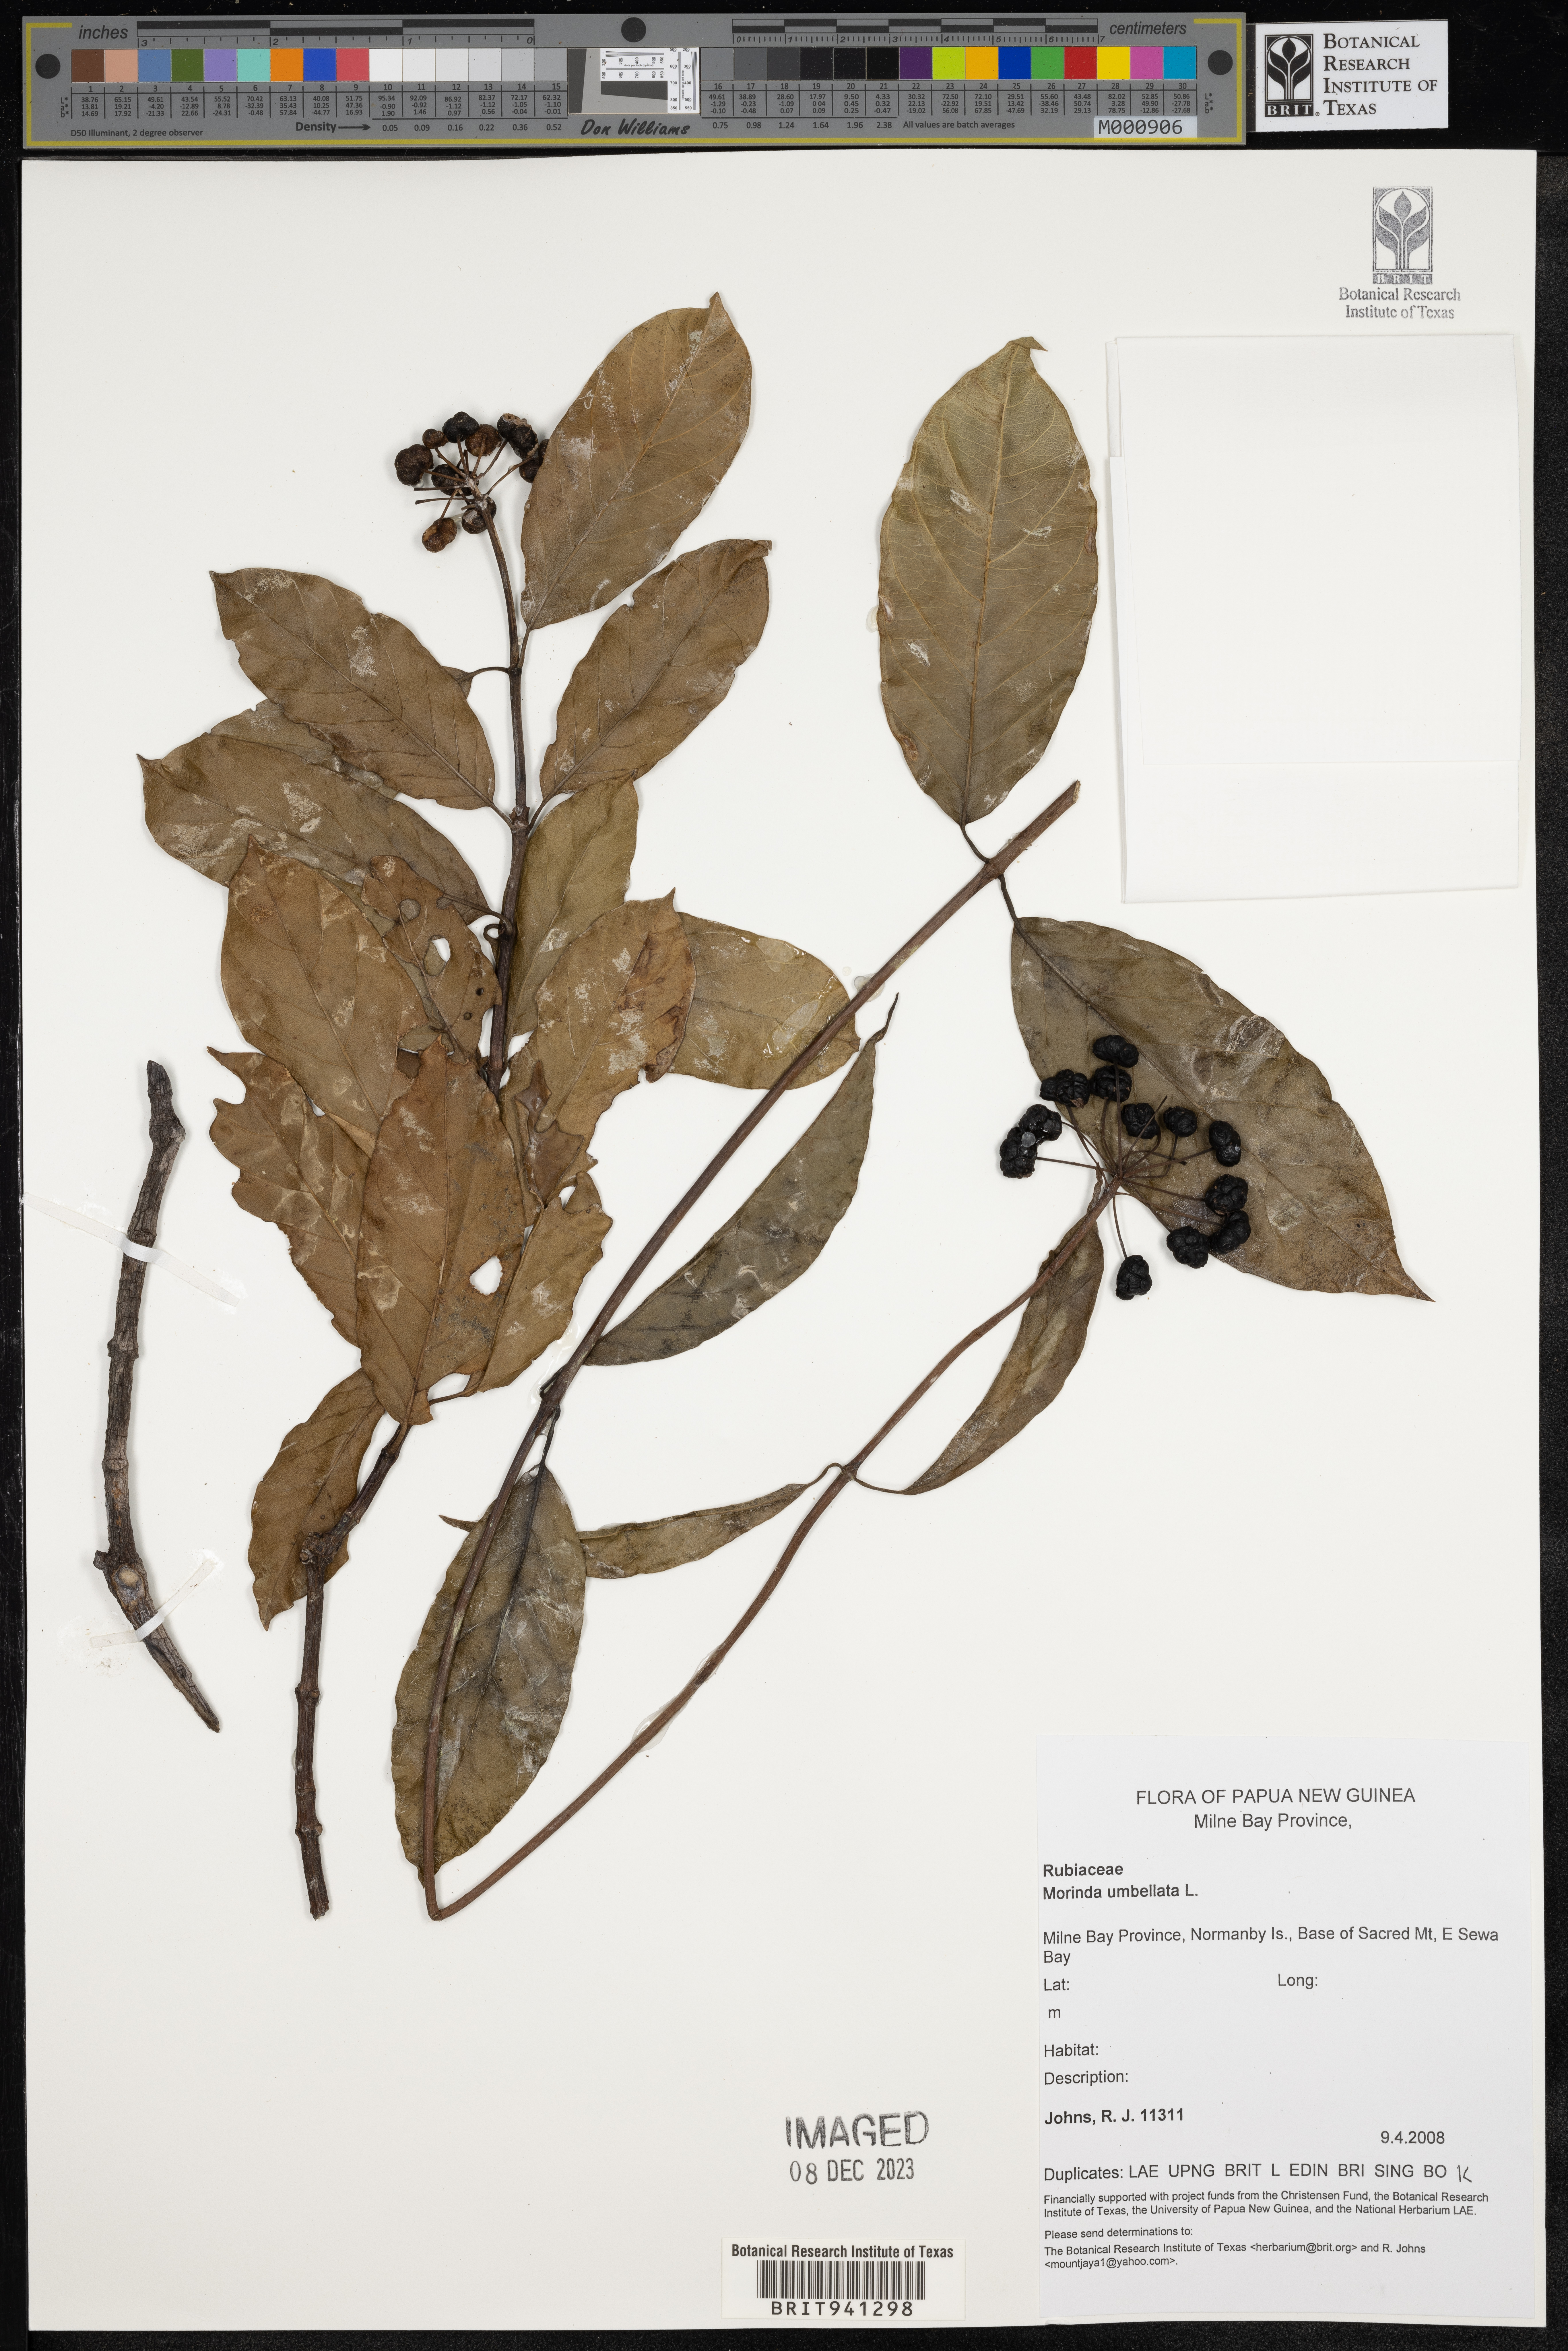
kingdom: Plantae
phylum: Tracheophyta
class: Magnoliopsida
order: Gentianales
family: Rubiaceae
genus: Morinda
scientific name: Morinda
